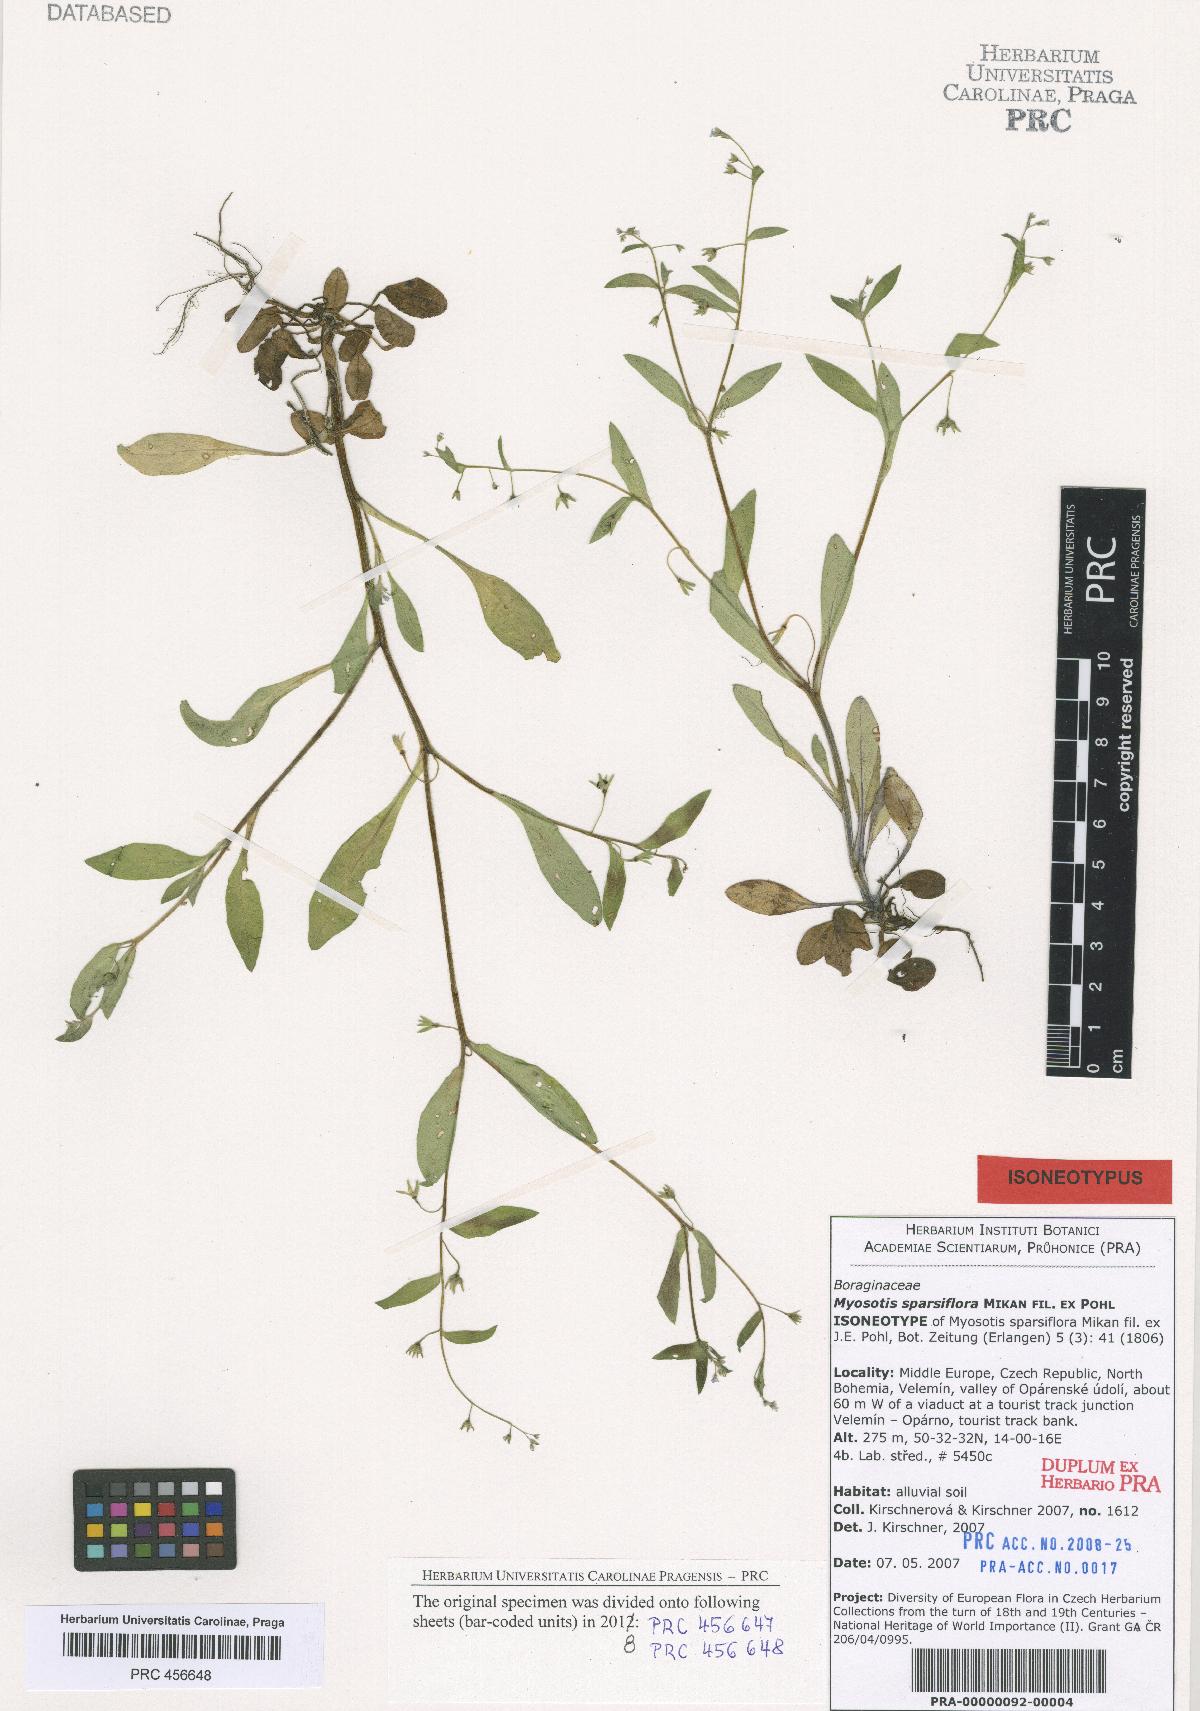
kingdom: Plantae
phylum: Tracheophyta
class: Magnoliopsida
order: Boraginales
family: Boraginaceae
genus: Myosotis
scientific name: Myosotis sparsiflora
